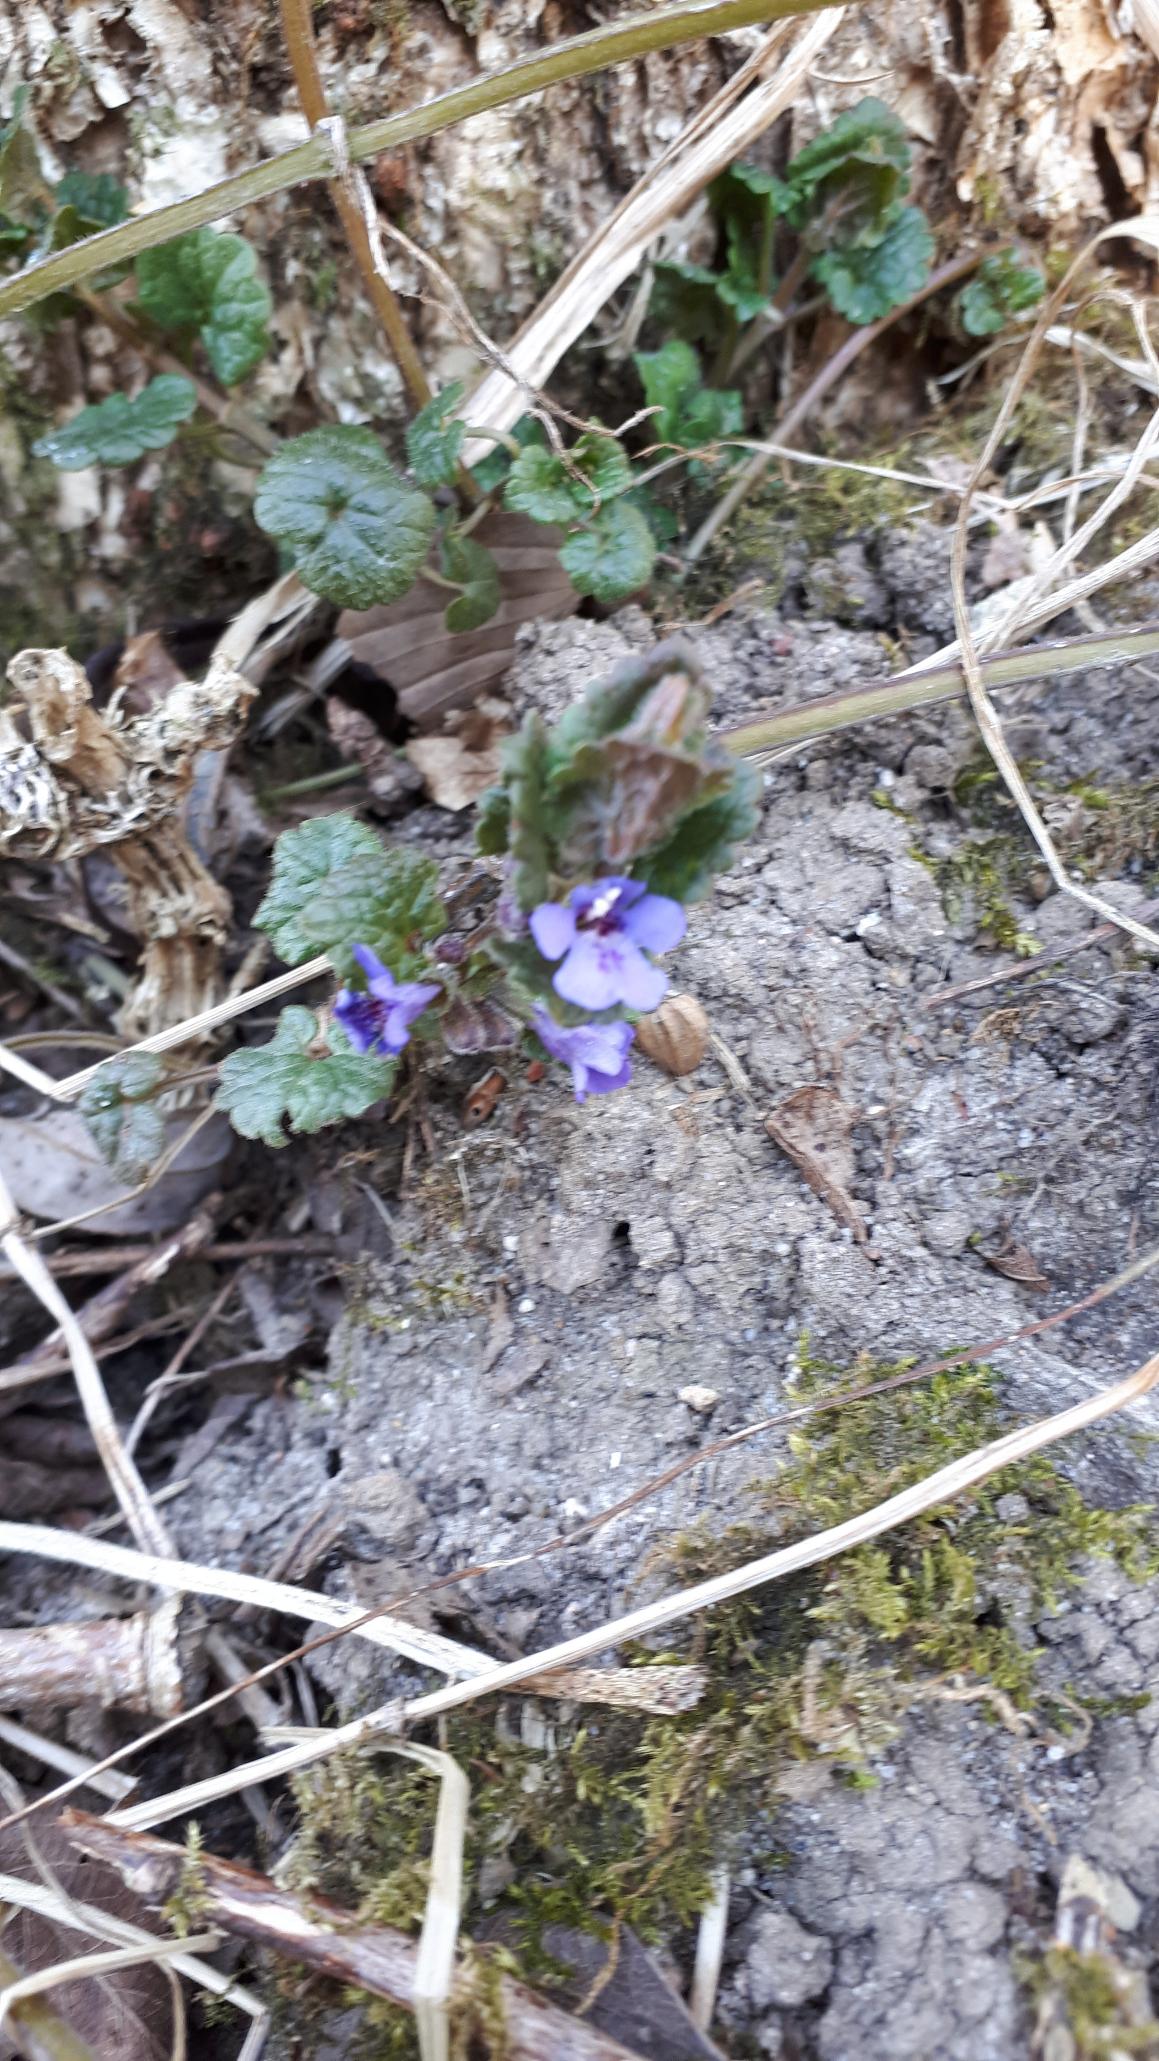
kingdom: Plantae
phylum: Tracheophyta
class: Magnoliopsida
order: Lamiales
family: Lamiaceae
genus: Glechoma
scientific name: Glechoma hederacea
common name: Korsknap
